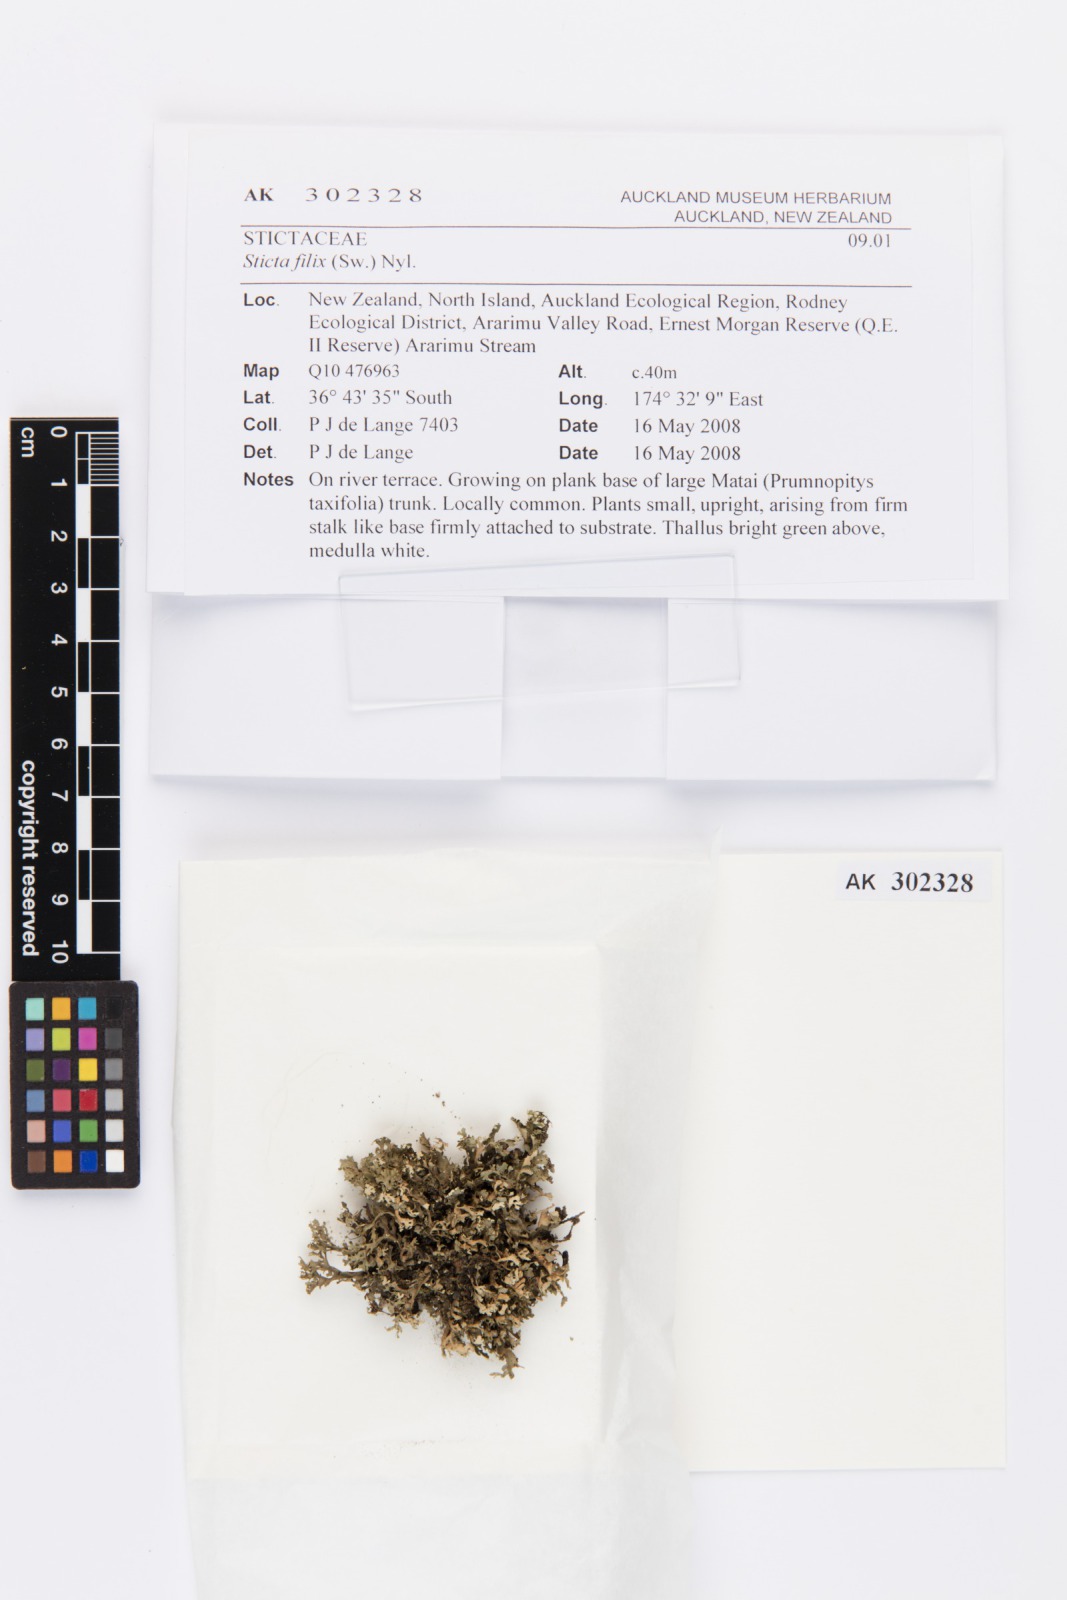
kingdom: Fungi
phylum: Ascomycota
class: Lecanoromycetes
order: Peltigerales
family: Lobariaceae
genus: Sticta
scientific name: Sticta
